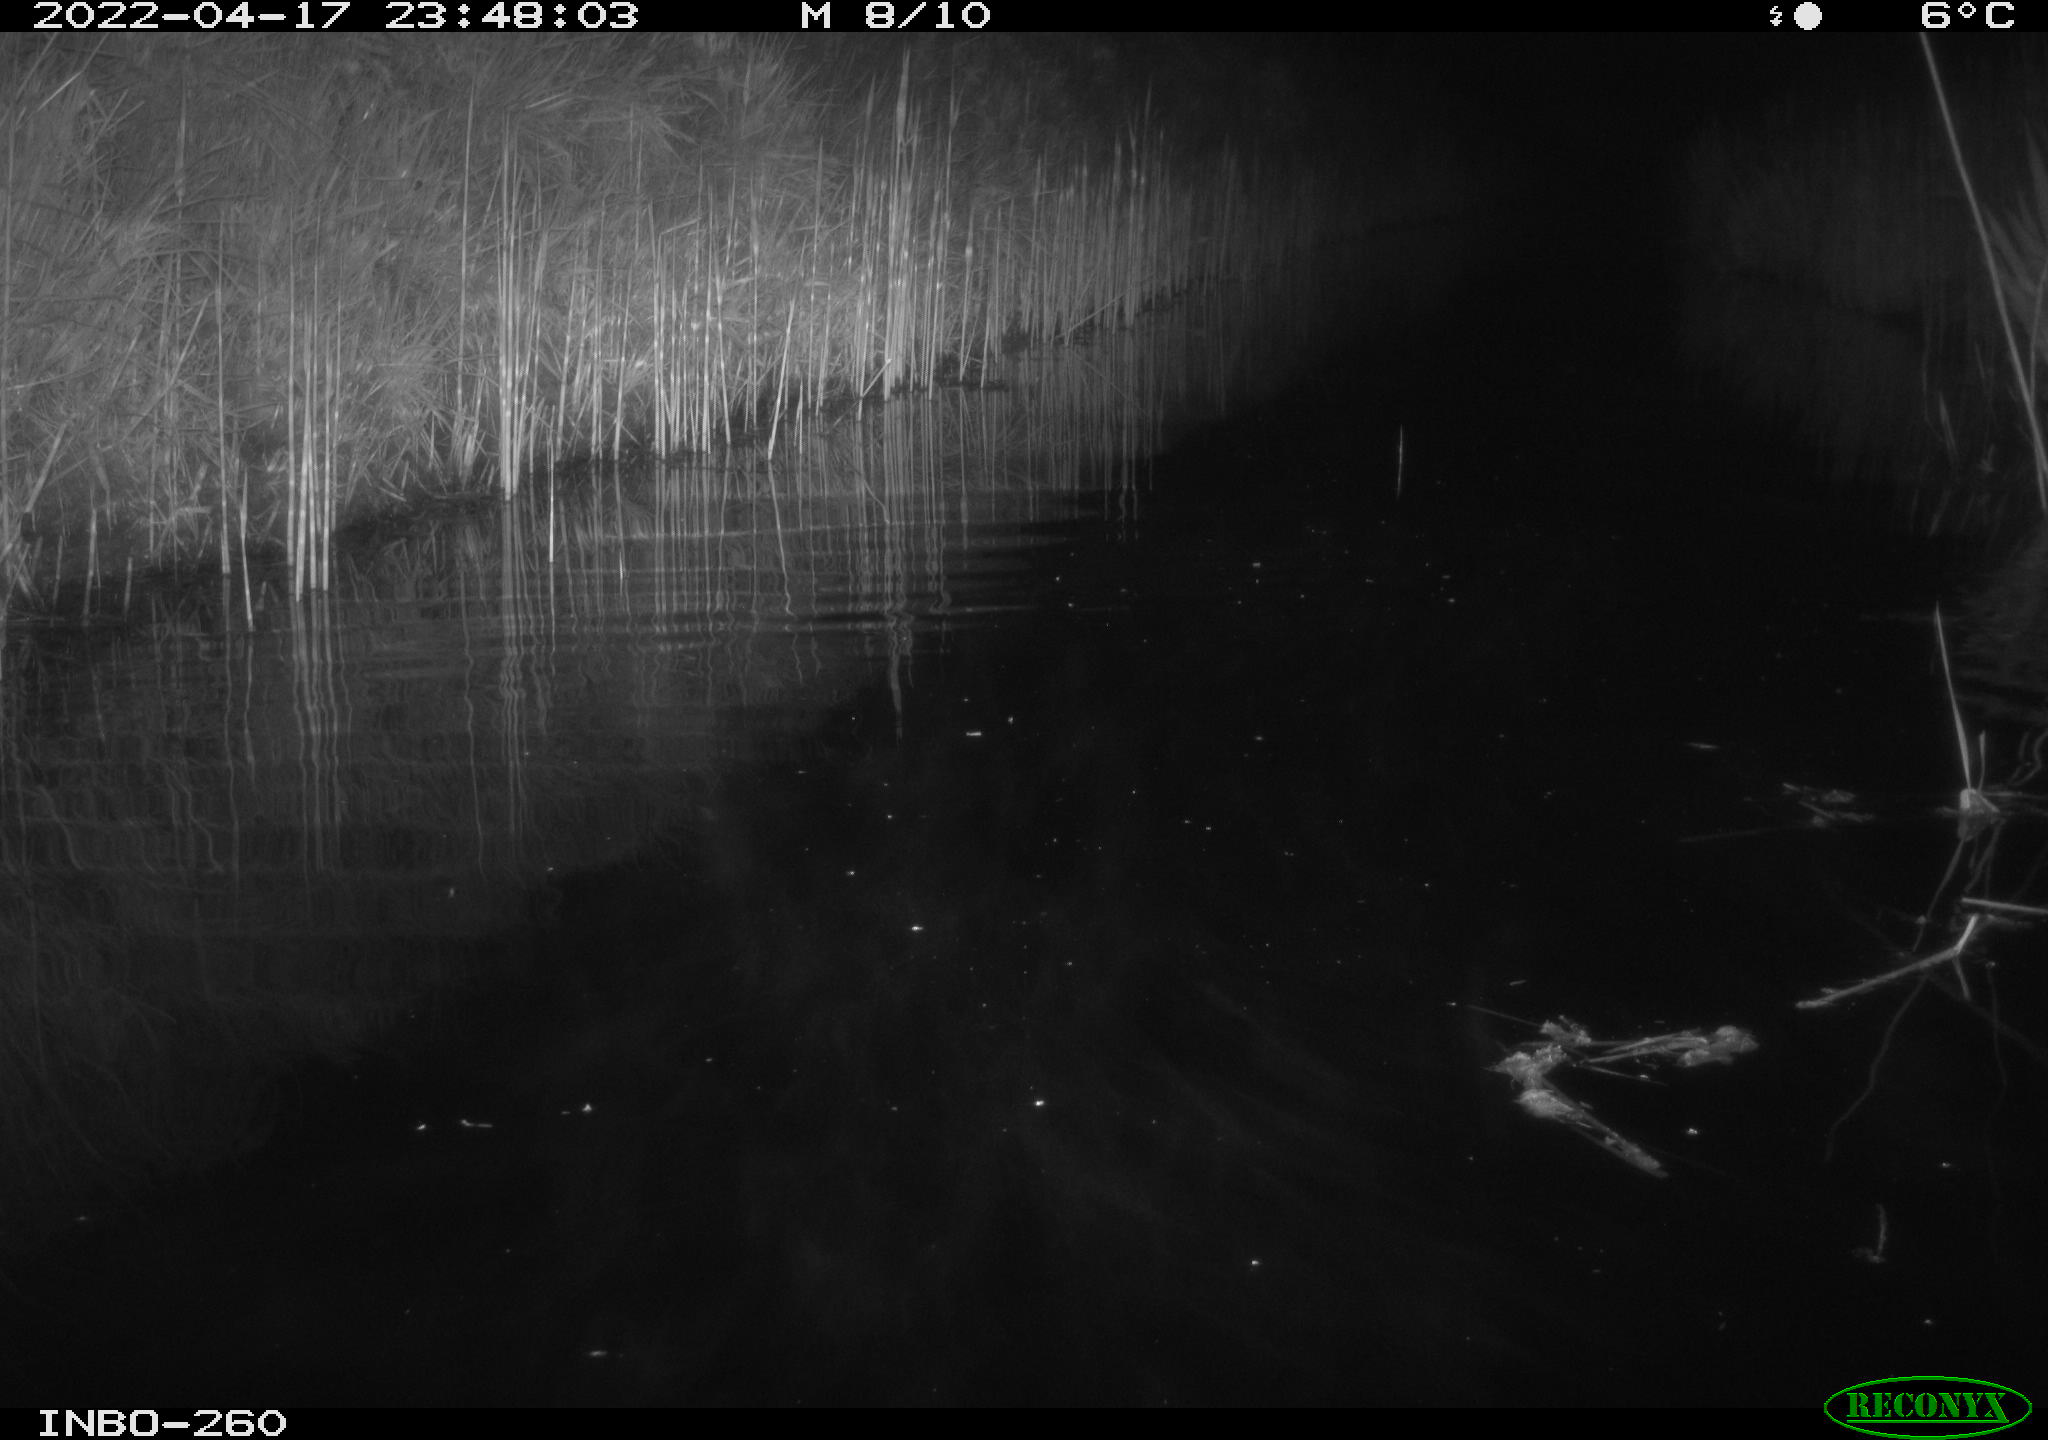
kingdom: Animalia
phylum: Chordata
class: Mammalia
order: Rodentia
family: Muridae
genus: Rattus
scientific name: Rattus norvegicus
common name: Brown rat
